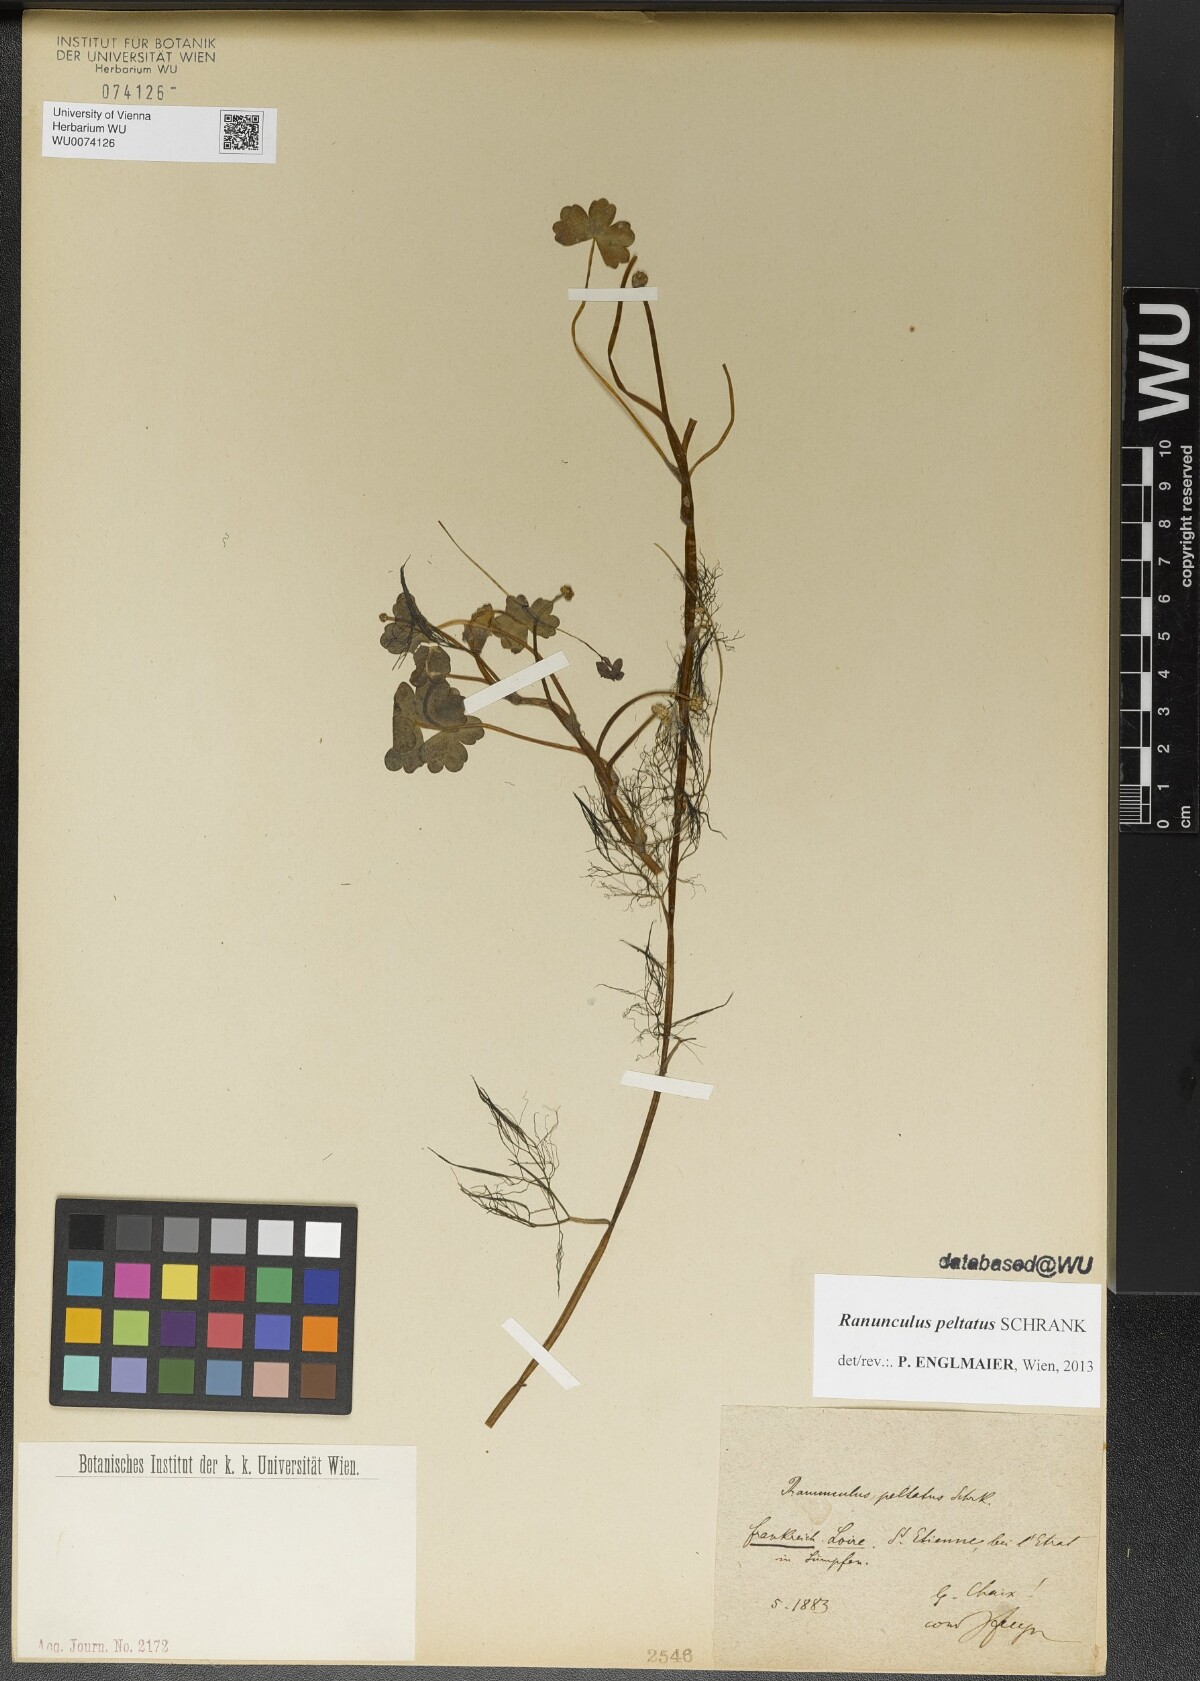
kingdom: Plantae
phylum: Tracheophyta
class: Magnoliopsida
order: Ranunculales
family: Ranunculaceae
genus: Ranunculus
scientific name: Ranunculus peltatus
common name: Pond water-crowfoot
